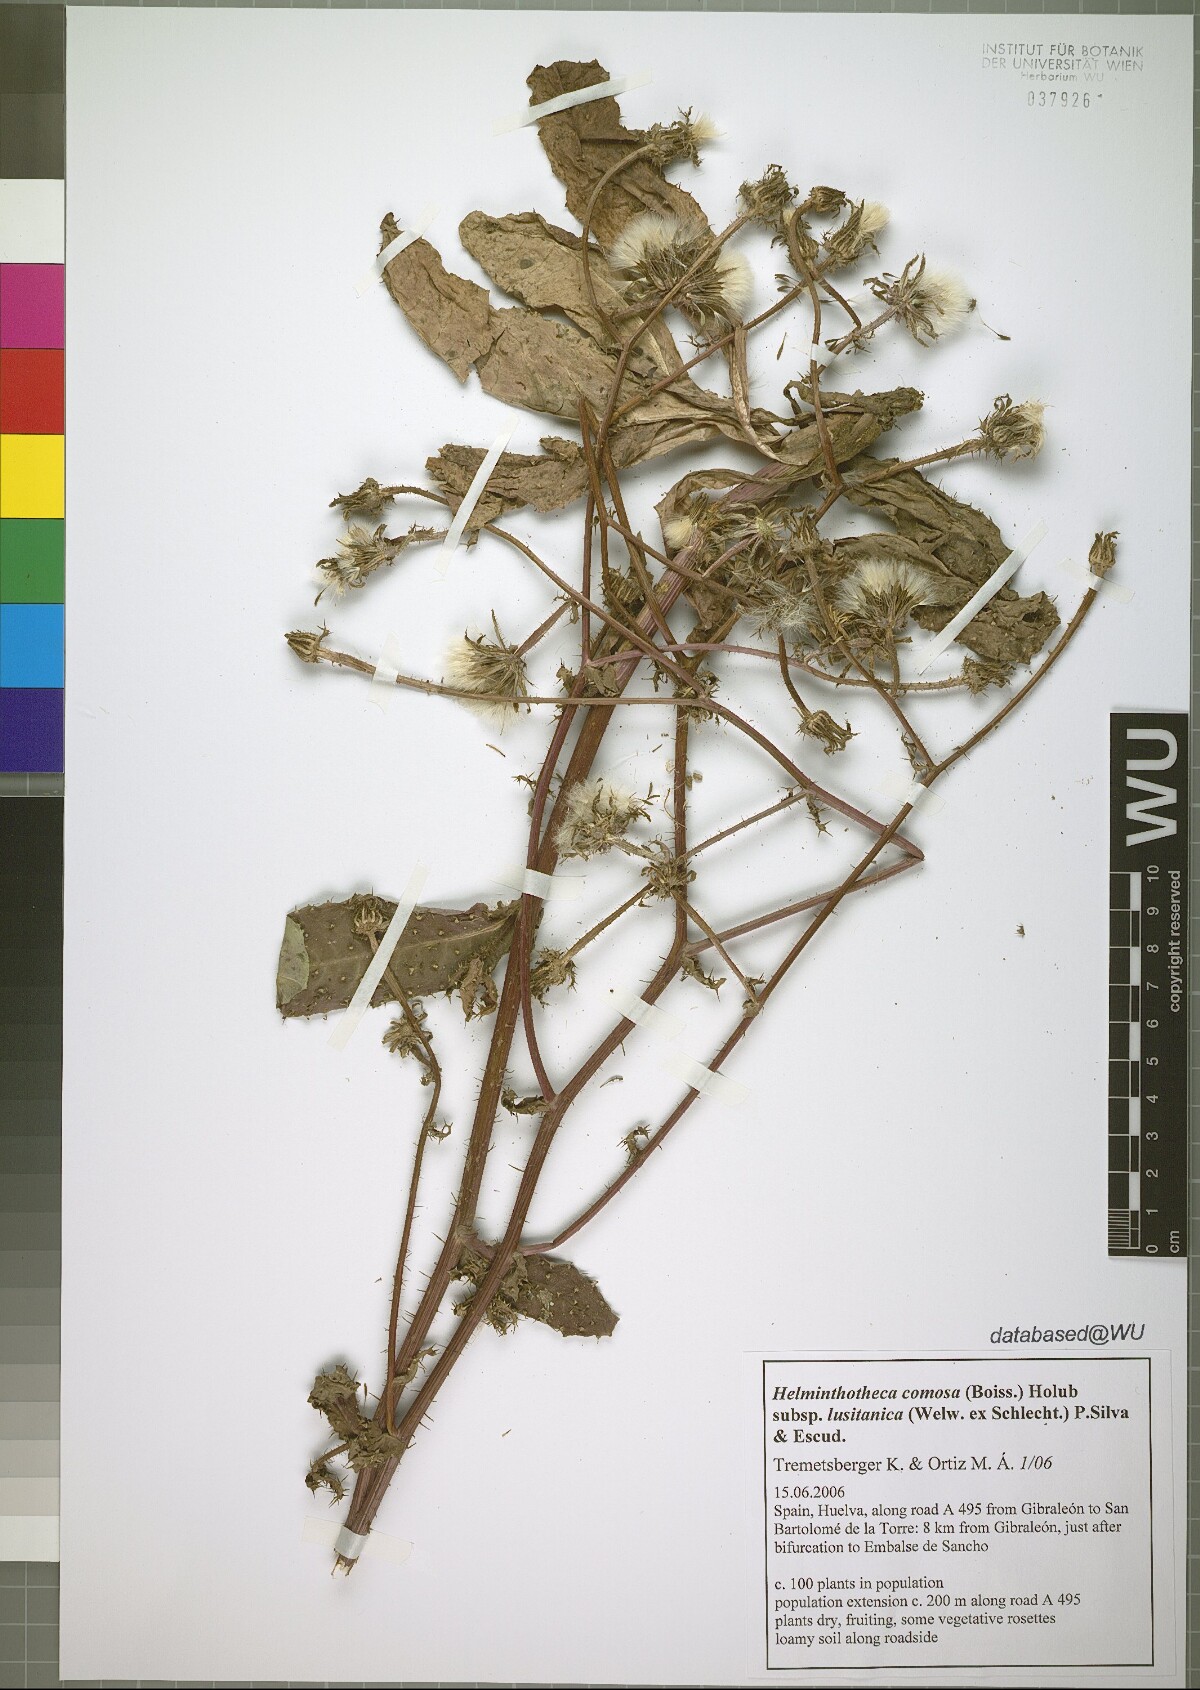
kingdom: Plantae
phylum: Tracheophyta
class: Magnoliopsida
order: Asterales
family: Asteraceae
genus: Helminthotheca
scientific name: Helminthotheca spinosa
